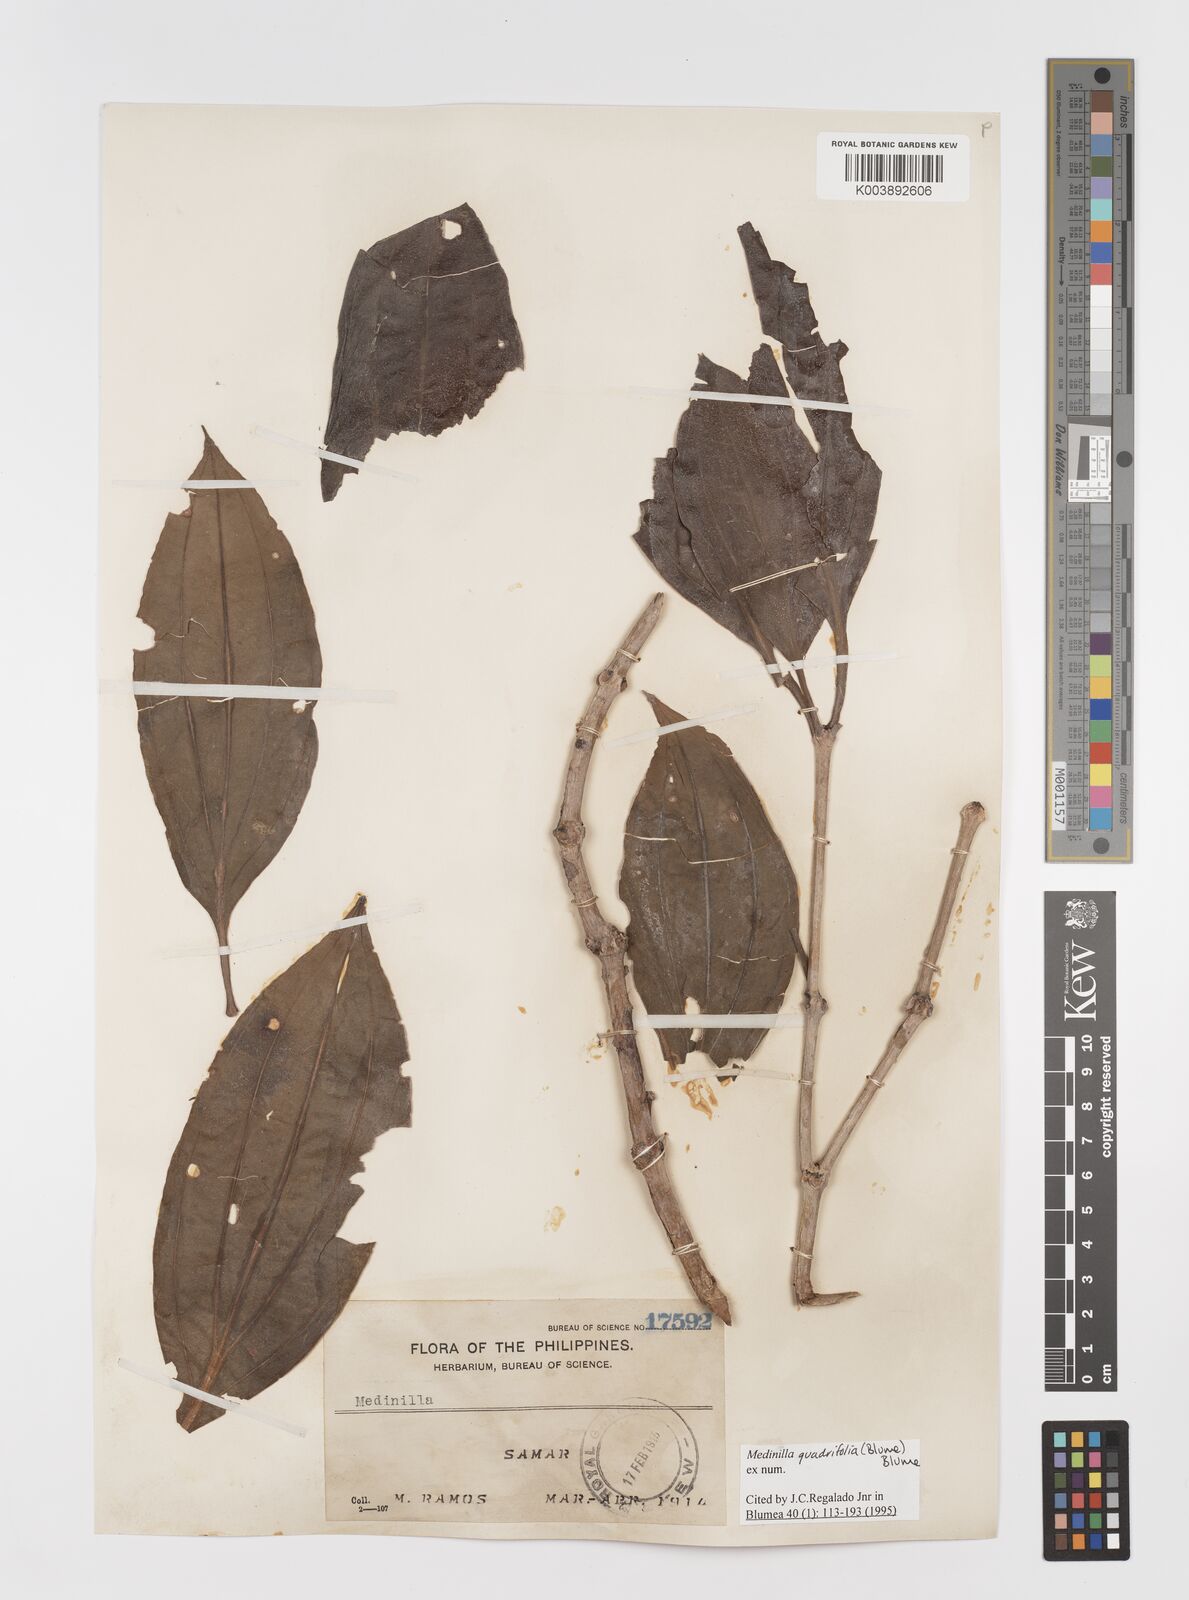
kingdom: Plantae
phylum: Tracheophyta
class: Magnoliopsida
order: Myrtales
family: Melastomataceae
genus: Medinilla
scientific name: Medinilla quadrifolia
